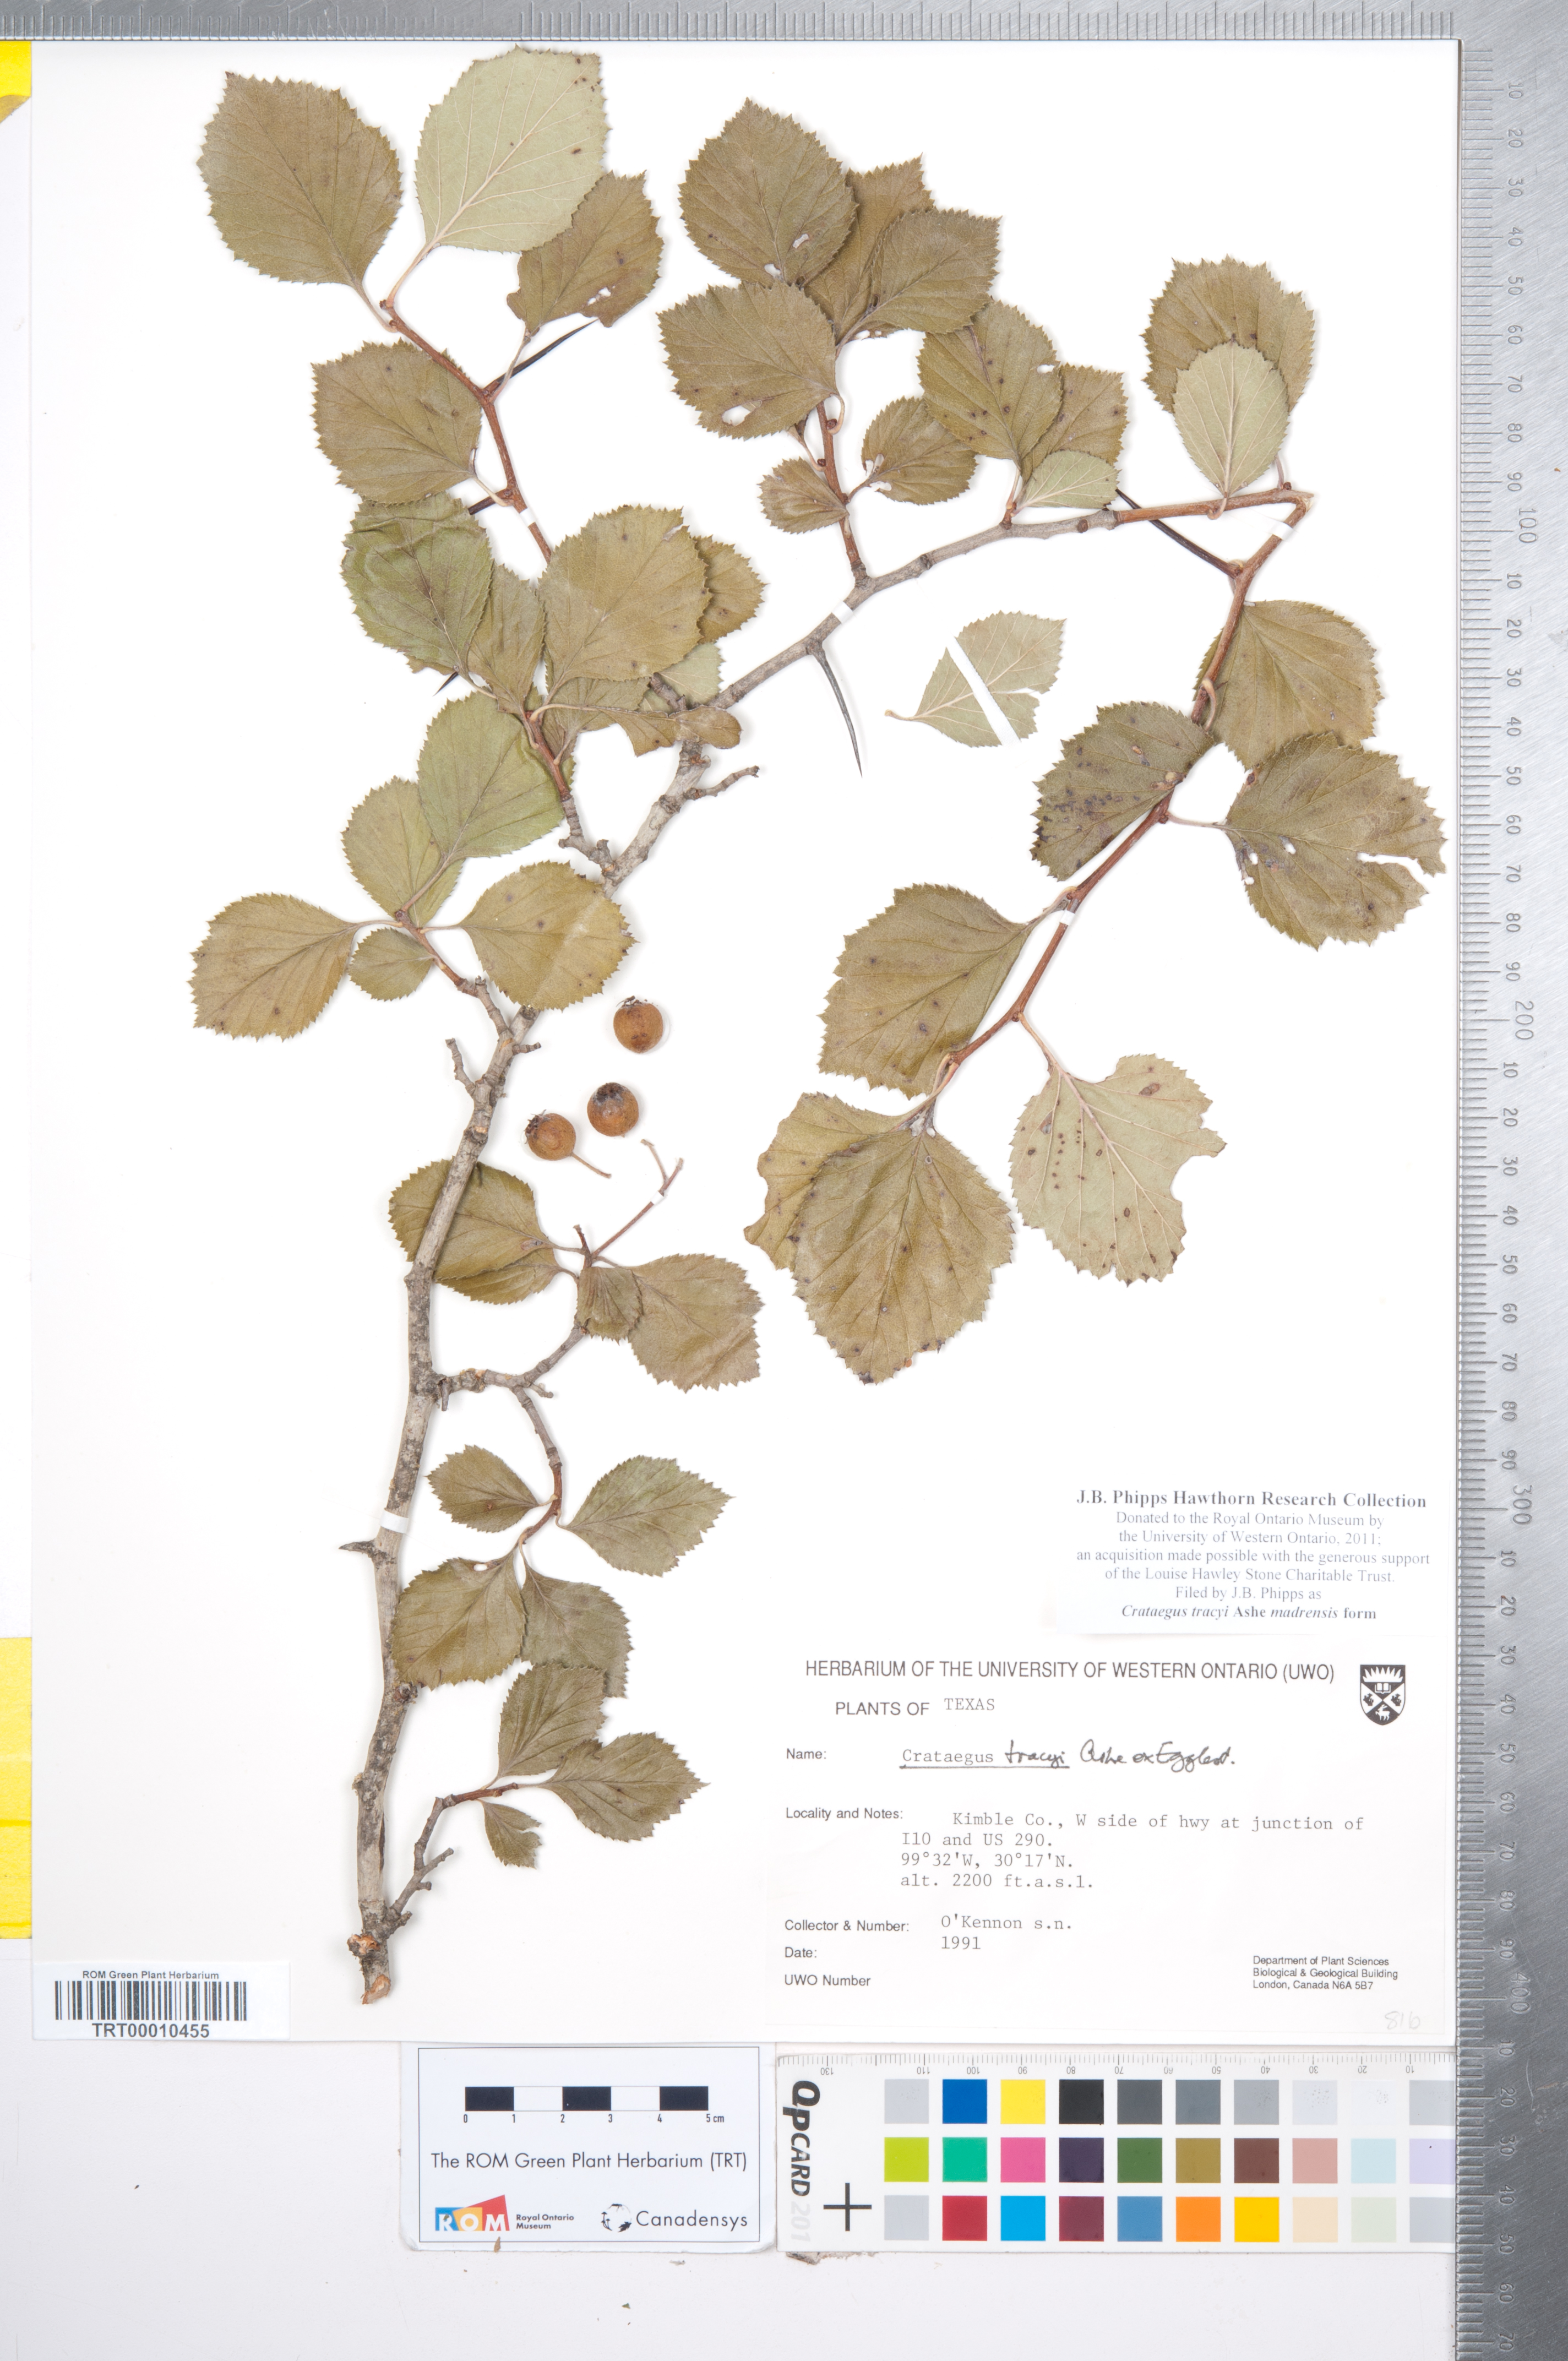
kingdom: Plantae
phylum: Tracheophyta
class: Magnoliopsida
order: Rosales
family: Rosaceae
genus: Crataegus
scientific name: Crataegus tracyi
